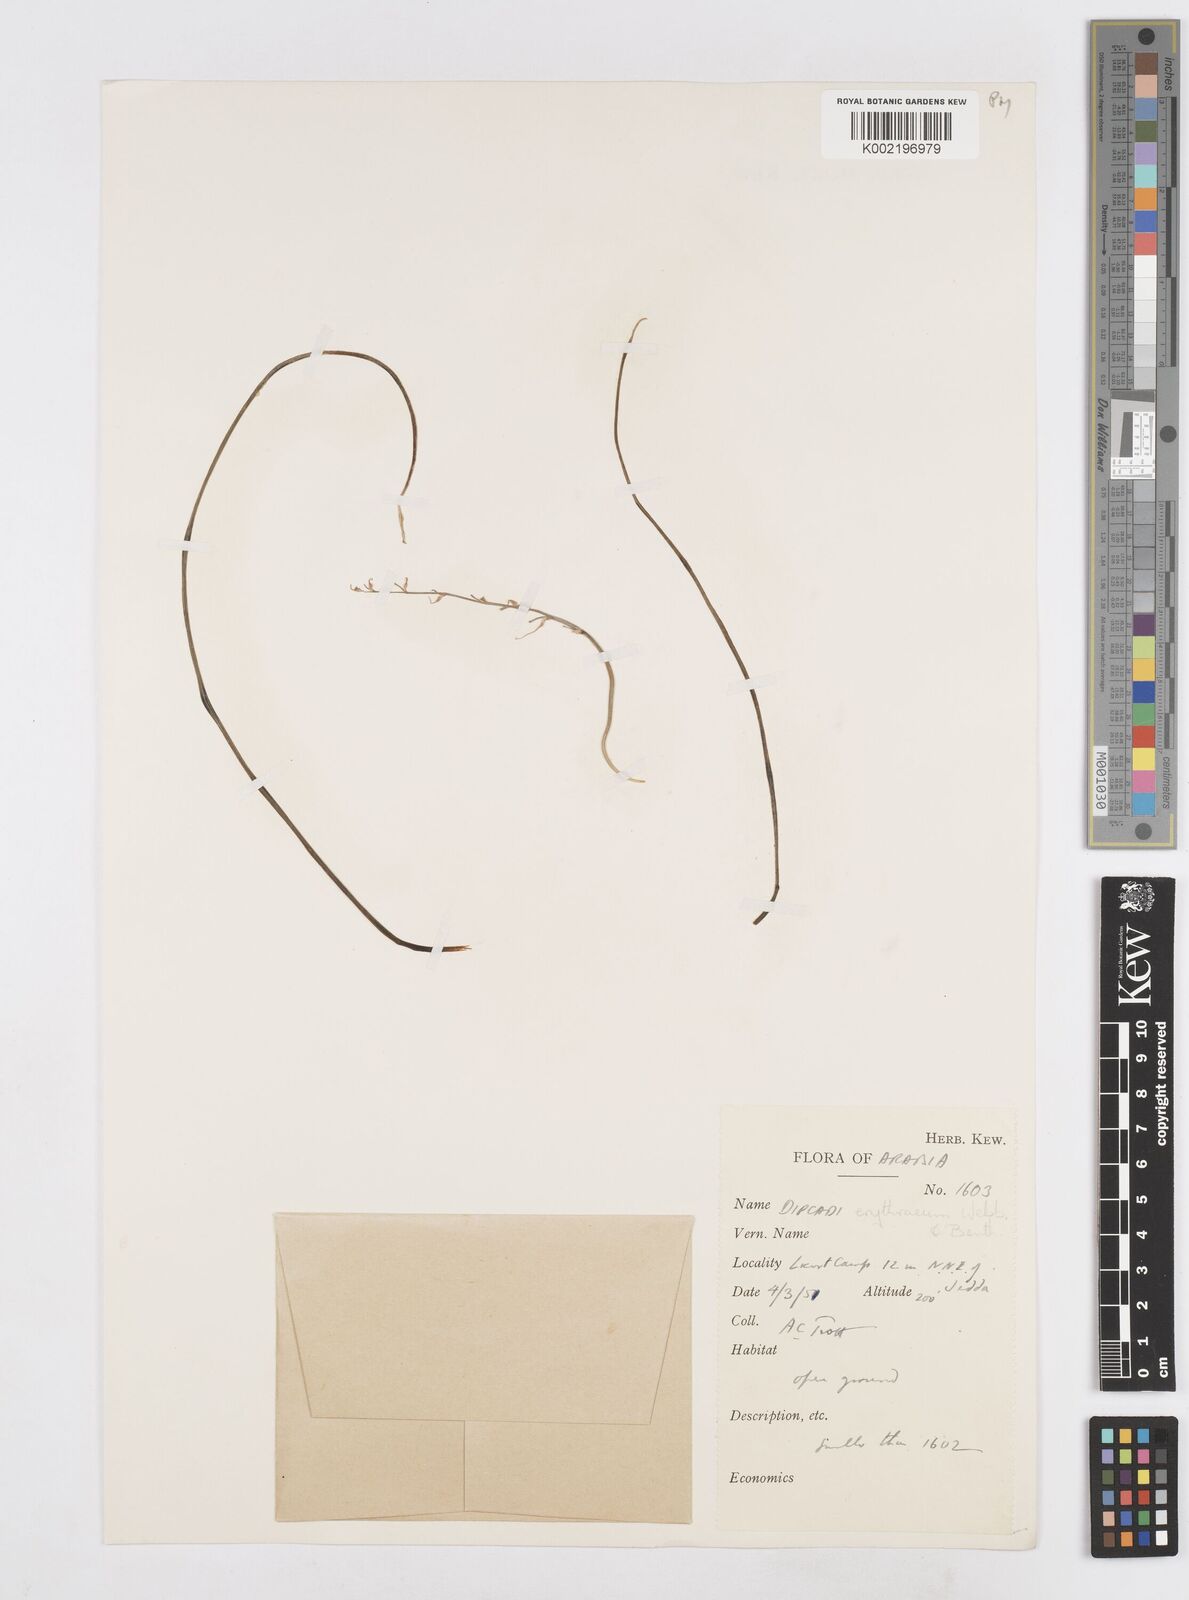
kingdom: Plantae
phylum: Tracheophyta
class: Liliopsida
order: Asparagales
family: Asparagaceae
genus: Dipcadi
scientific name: Dipcadi erythraeum
